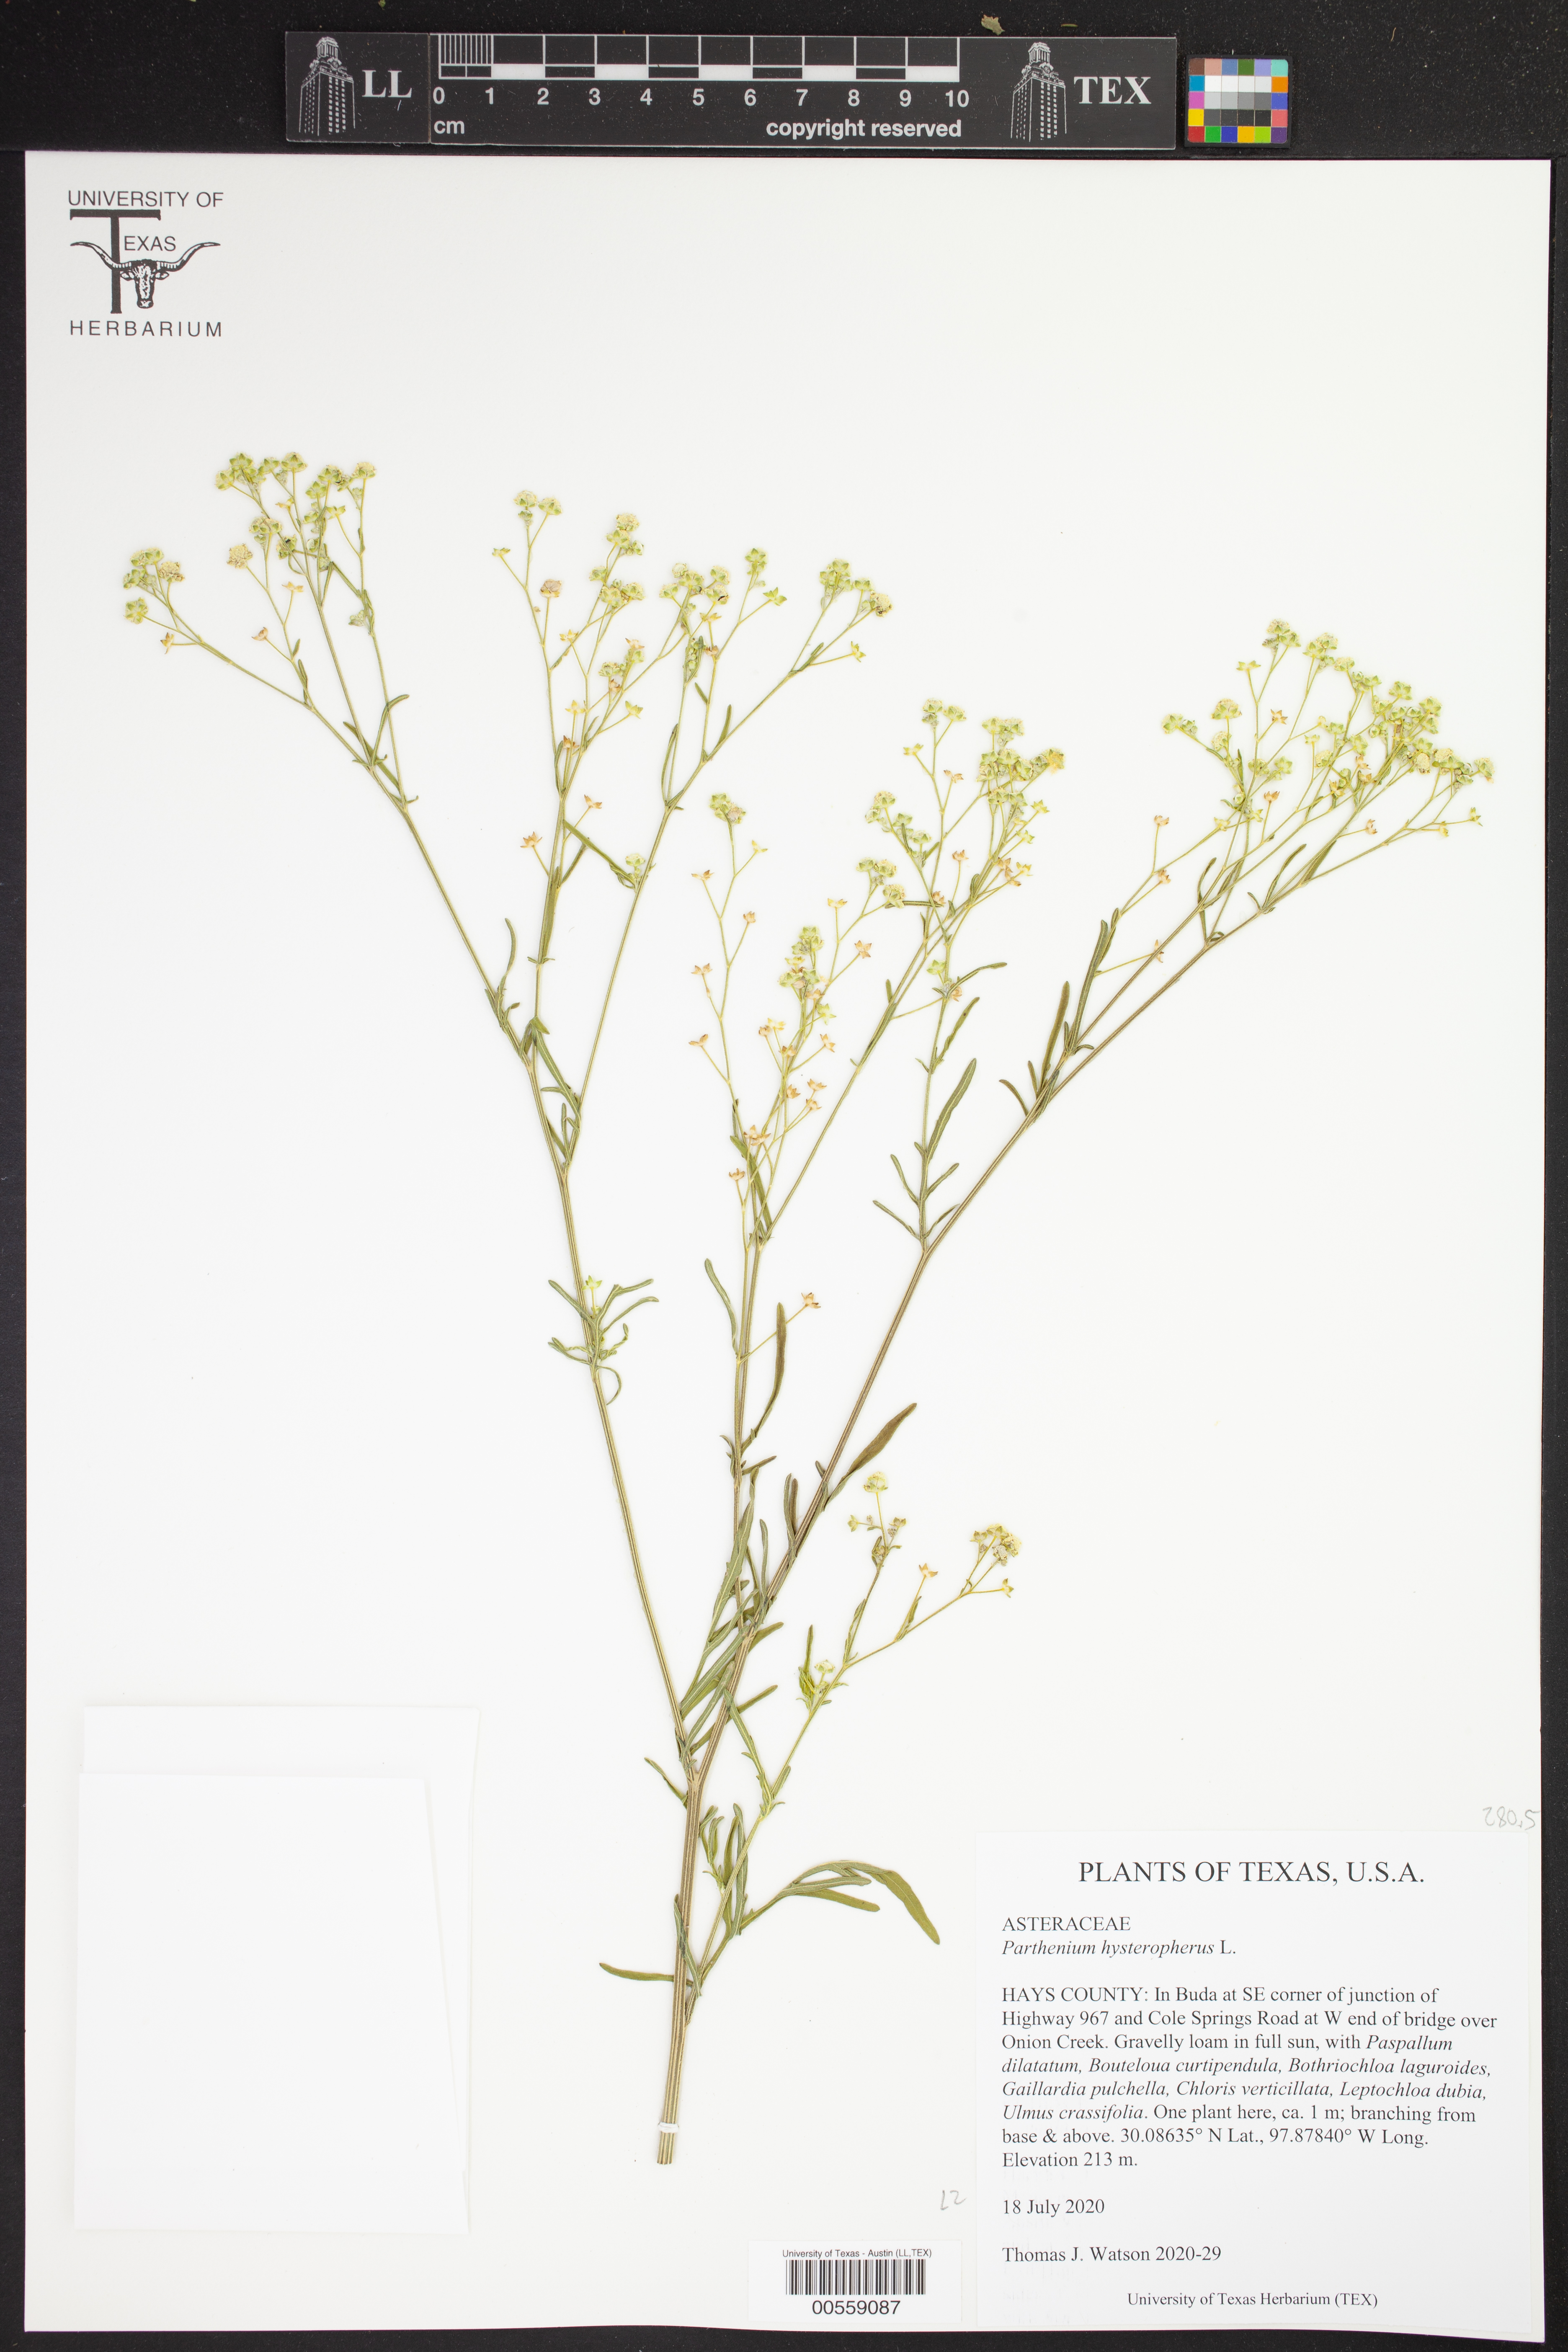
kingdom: Plantae
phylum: Tracheophyta
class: Magnoliopsida
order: Asterales
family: Asteraceae
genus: Parthenium
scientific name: Parthenium hysterophorus
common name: Santa maria feverfew
